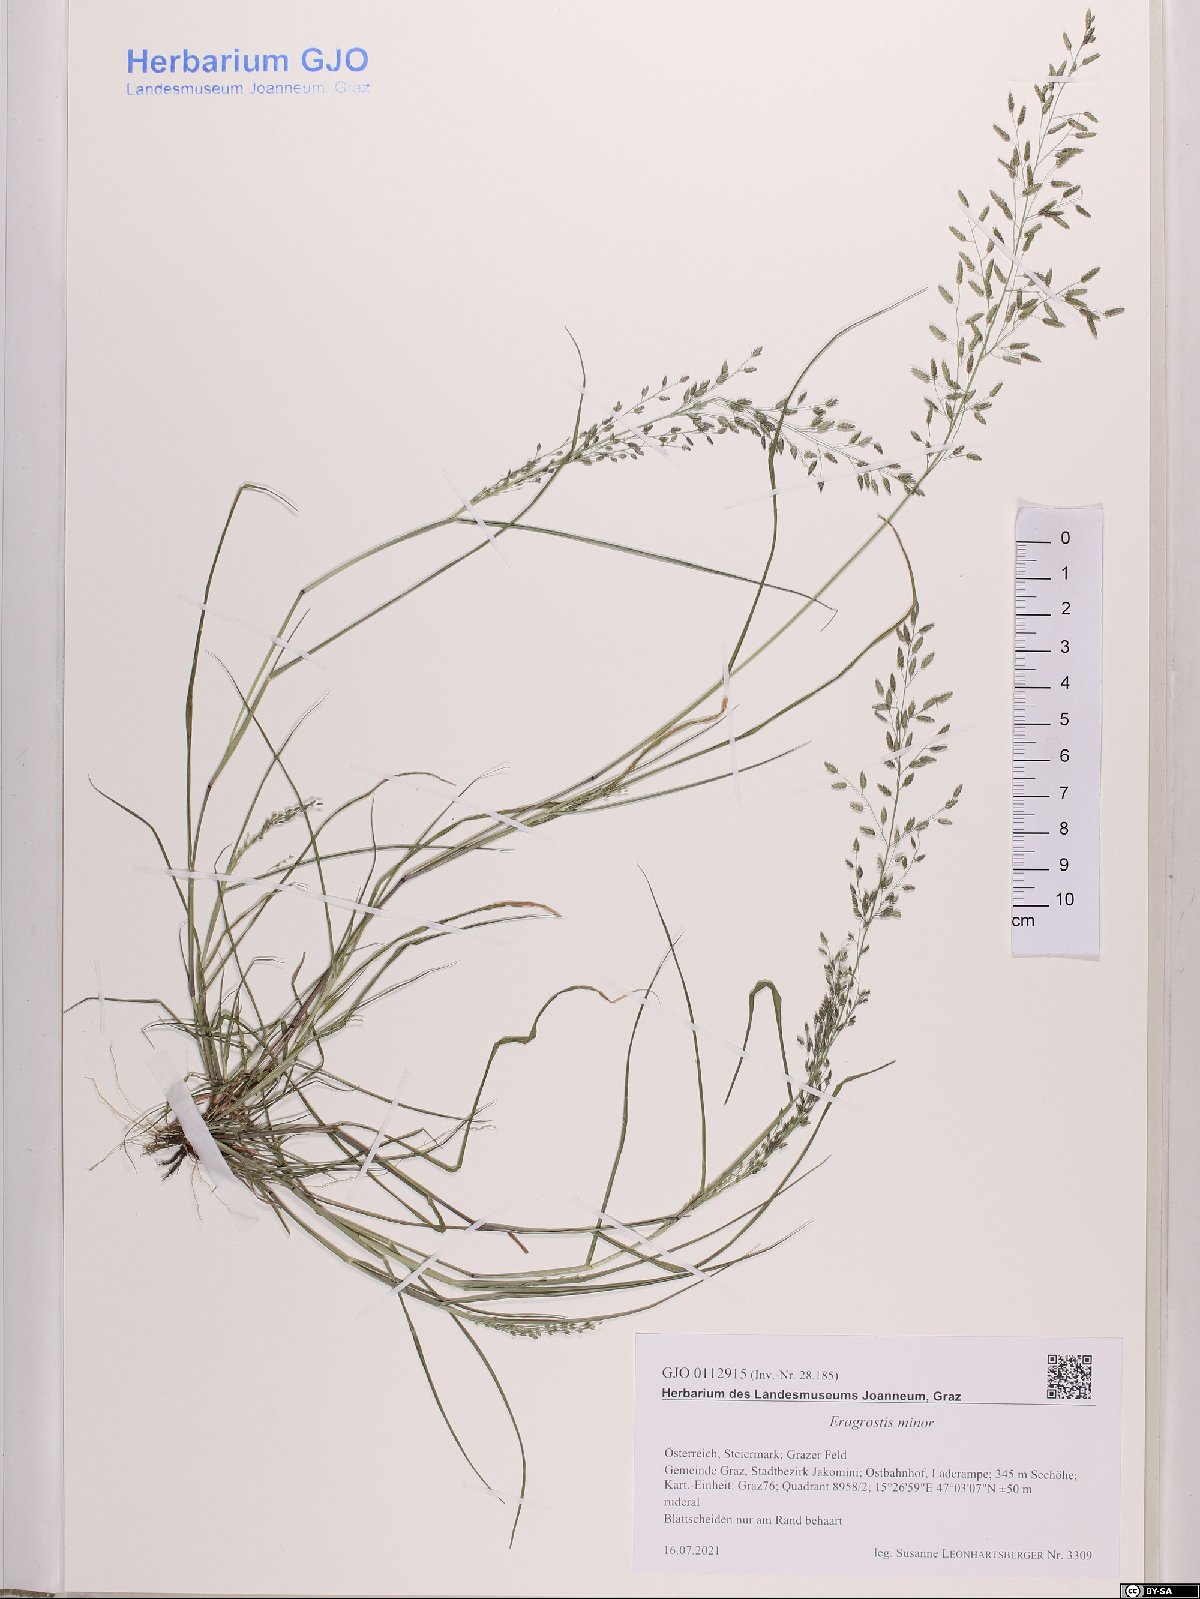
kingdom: Plantae
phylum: Tracheophyta
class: Liliopsida
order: Poales
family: Poaceae
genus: Eragrostis
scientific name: Eragrostis minor
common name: Small love-grass
